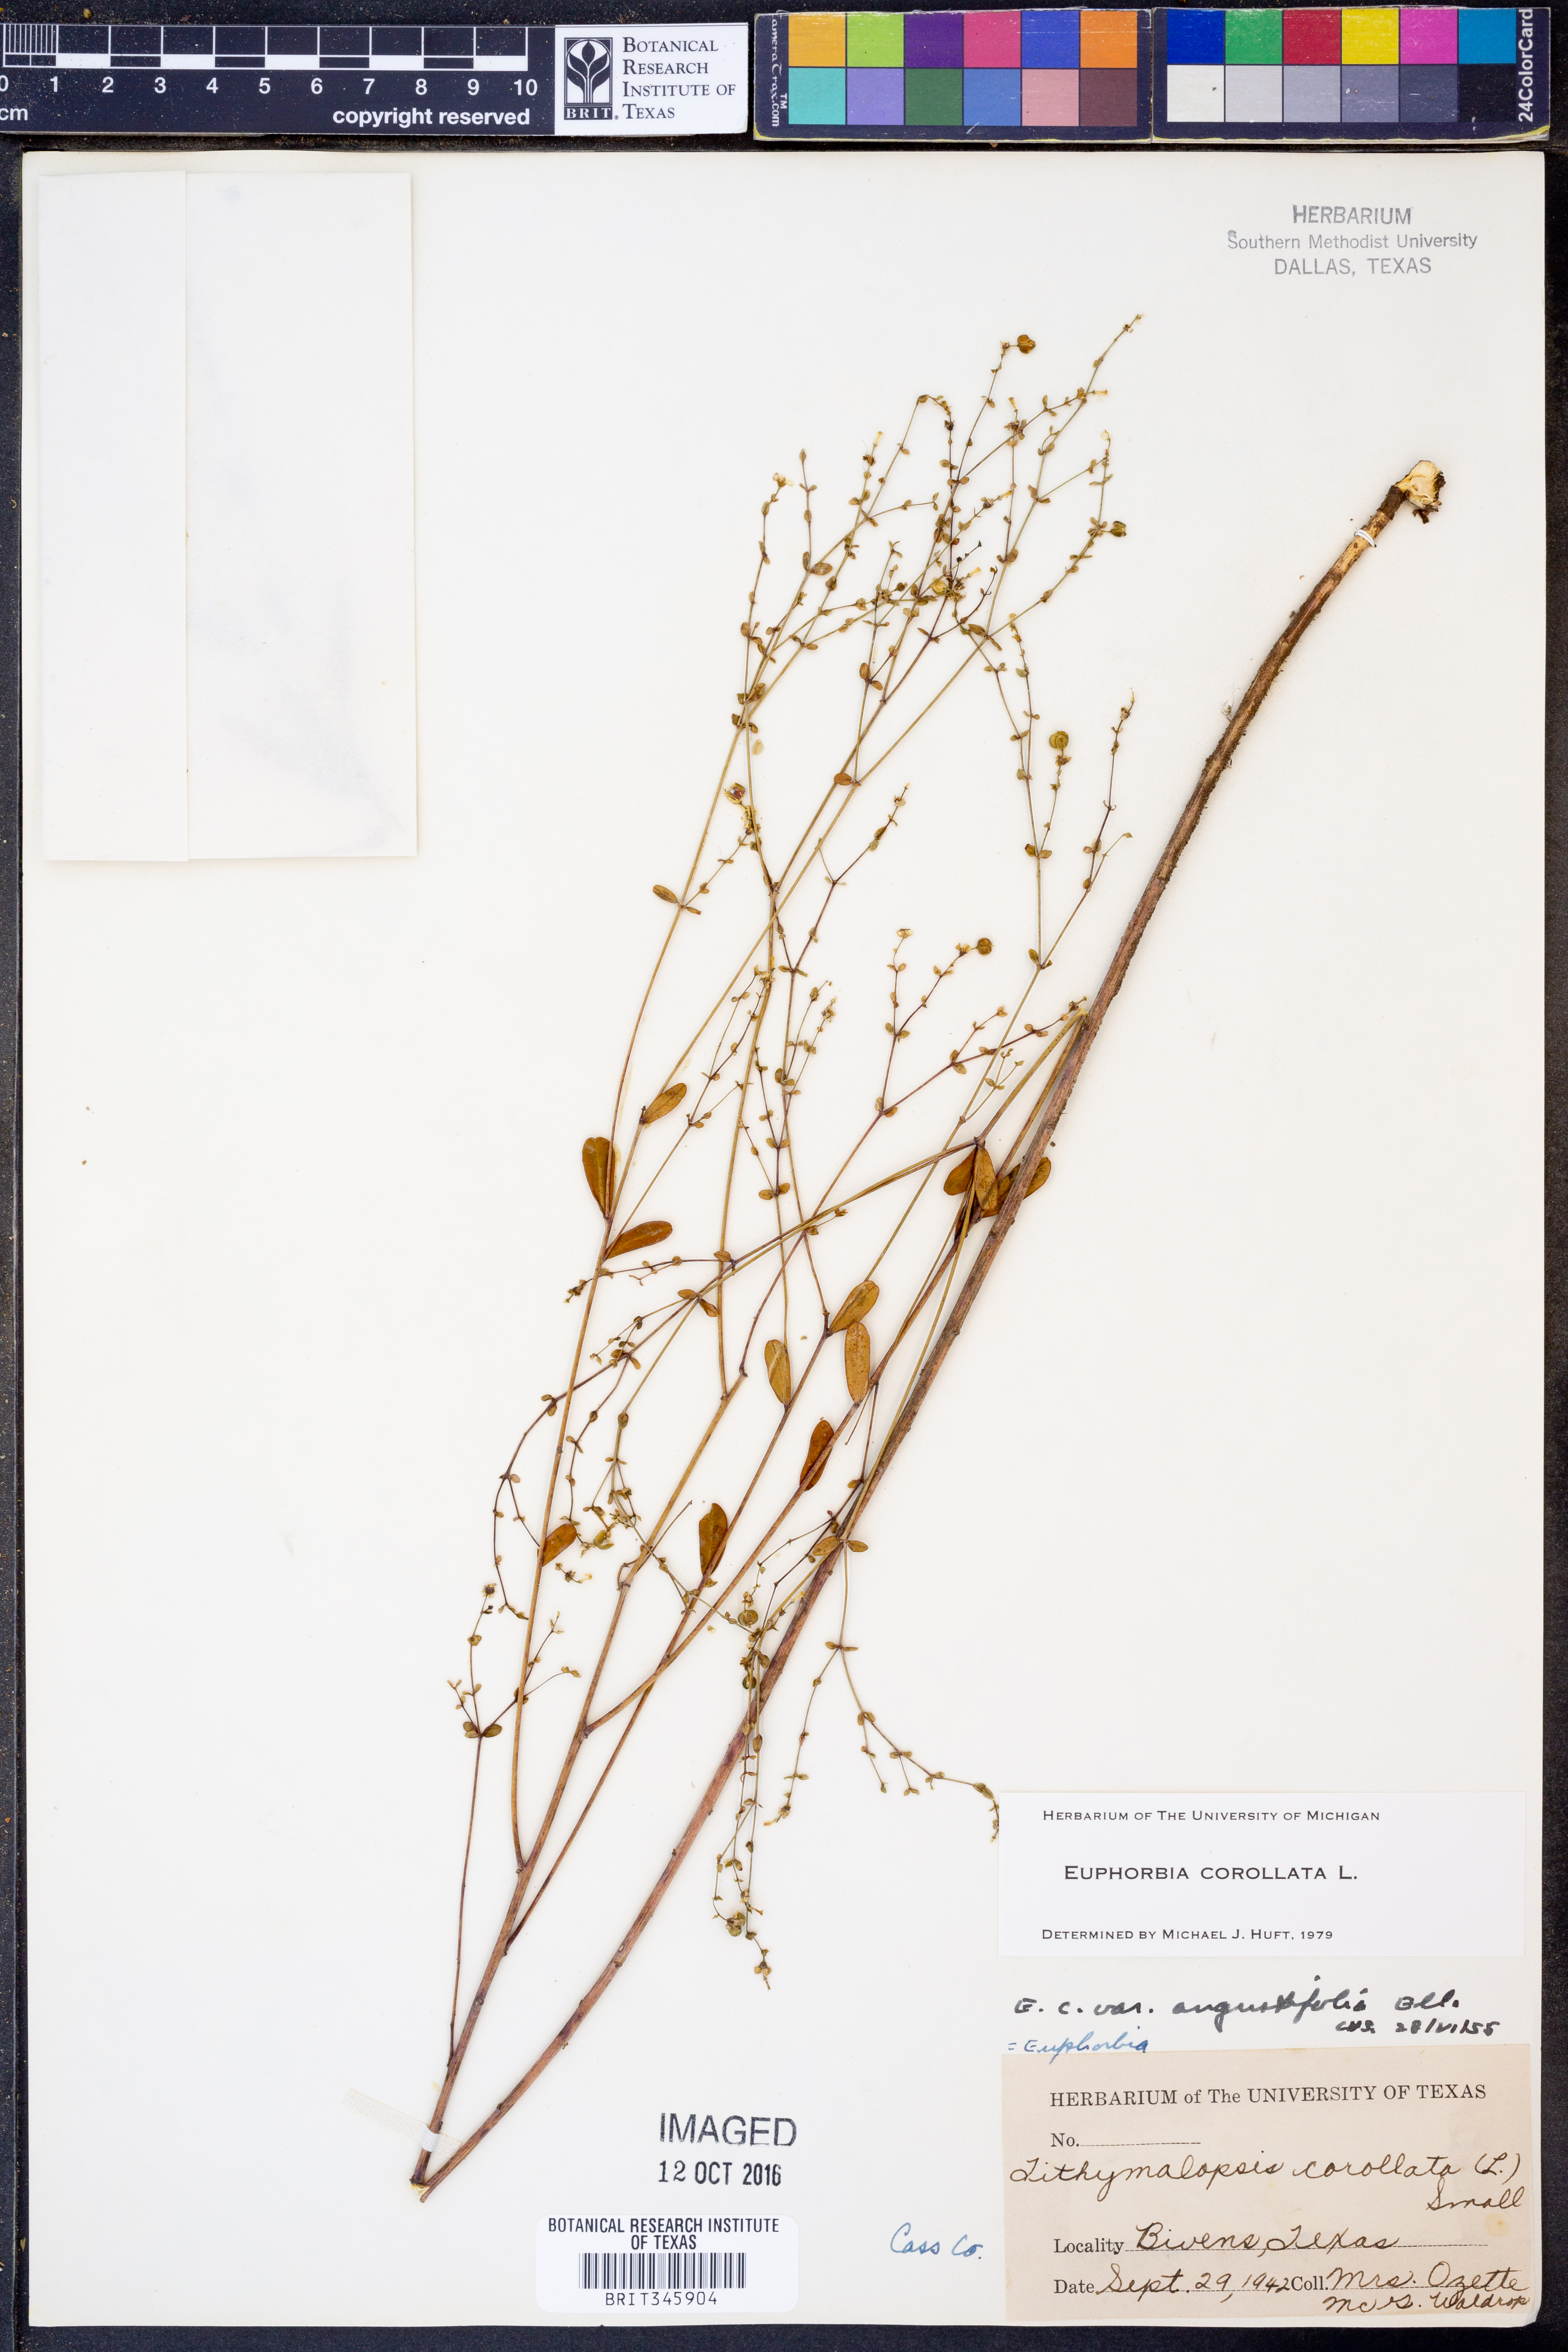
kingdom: Plantae
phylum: Tracheophyta
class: Magnoliopsida
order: Malpighiales
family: Euphorbiaceae
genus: Euphorbia
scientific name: Euphorbia corollata
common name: Flowering spurge
